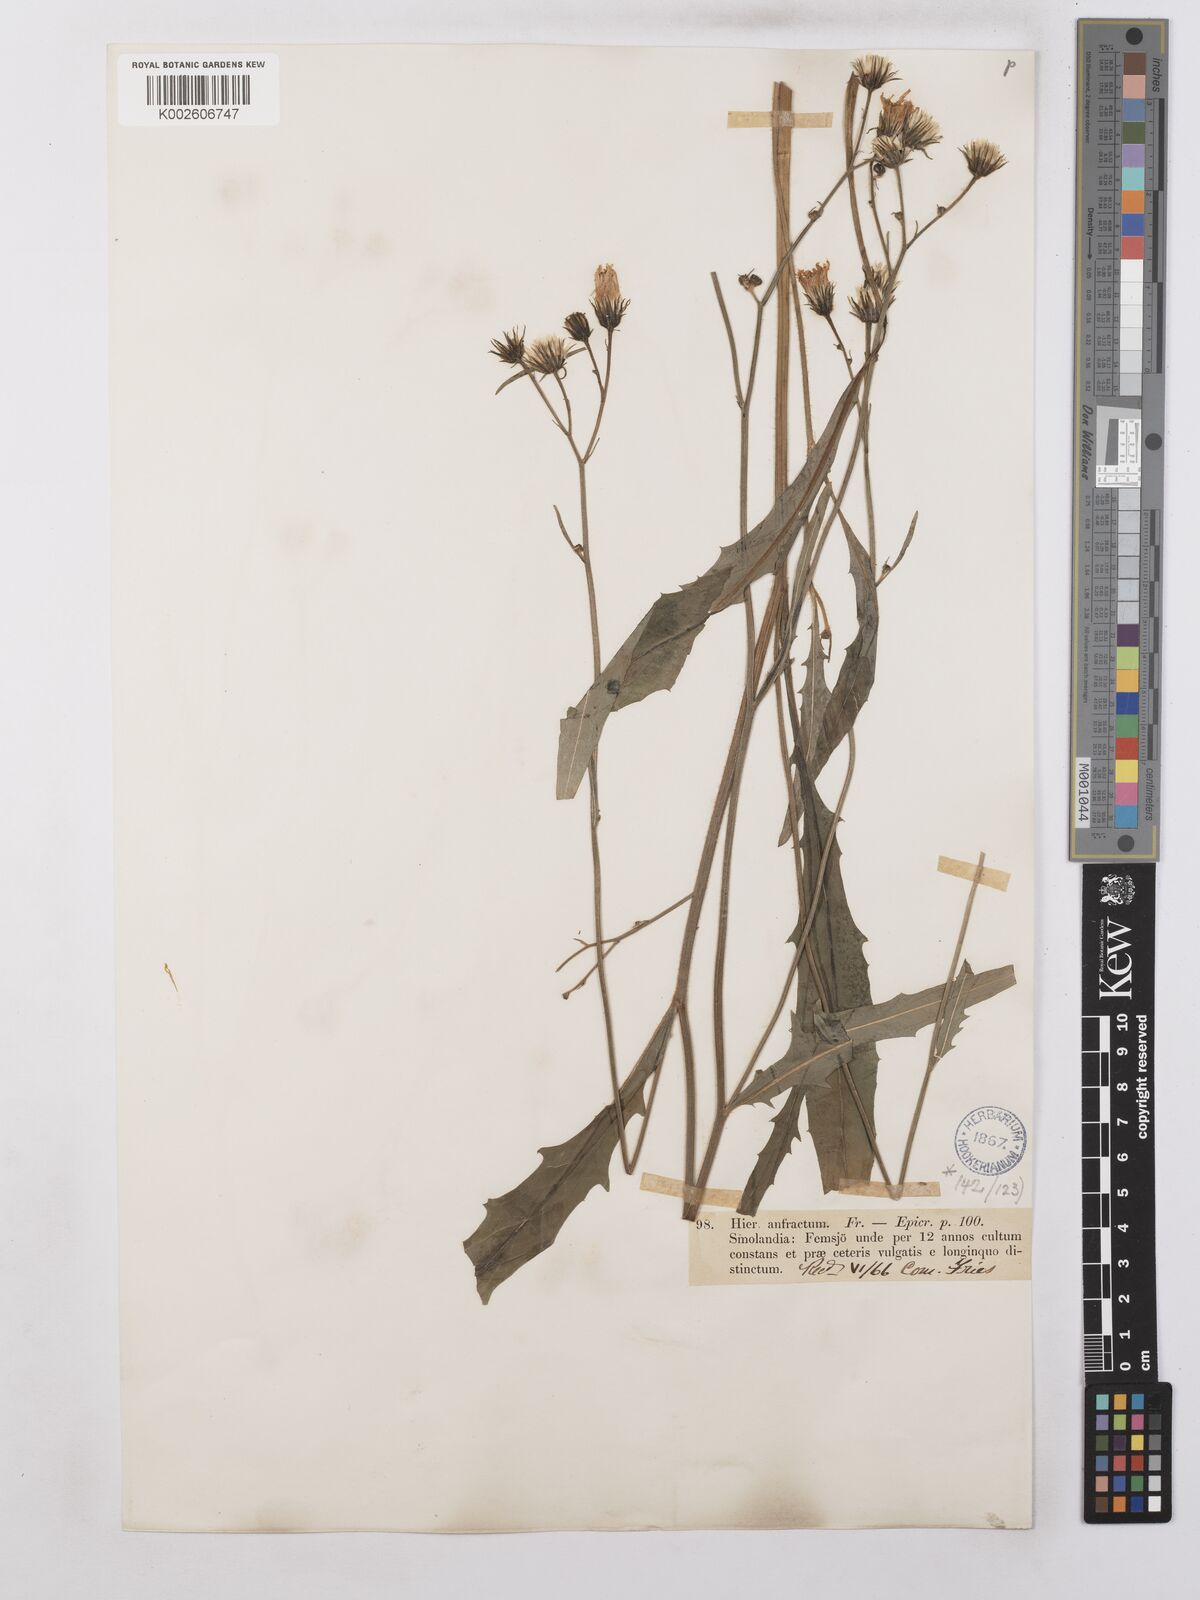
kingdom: Plantae
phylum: Tracheophyta
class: Magnoliopsida
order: Asterales
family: Asteraceae
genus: Hieracium
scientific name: Hieracium lachenalii
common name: Common hawkweed
